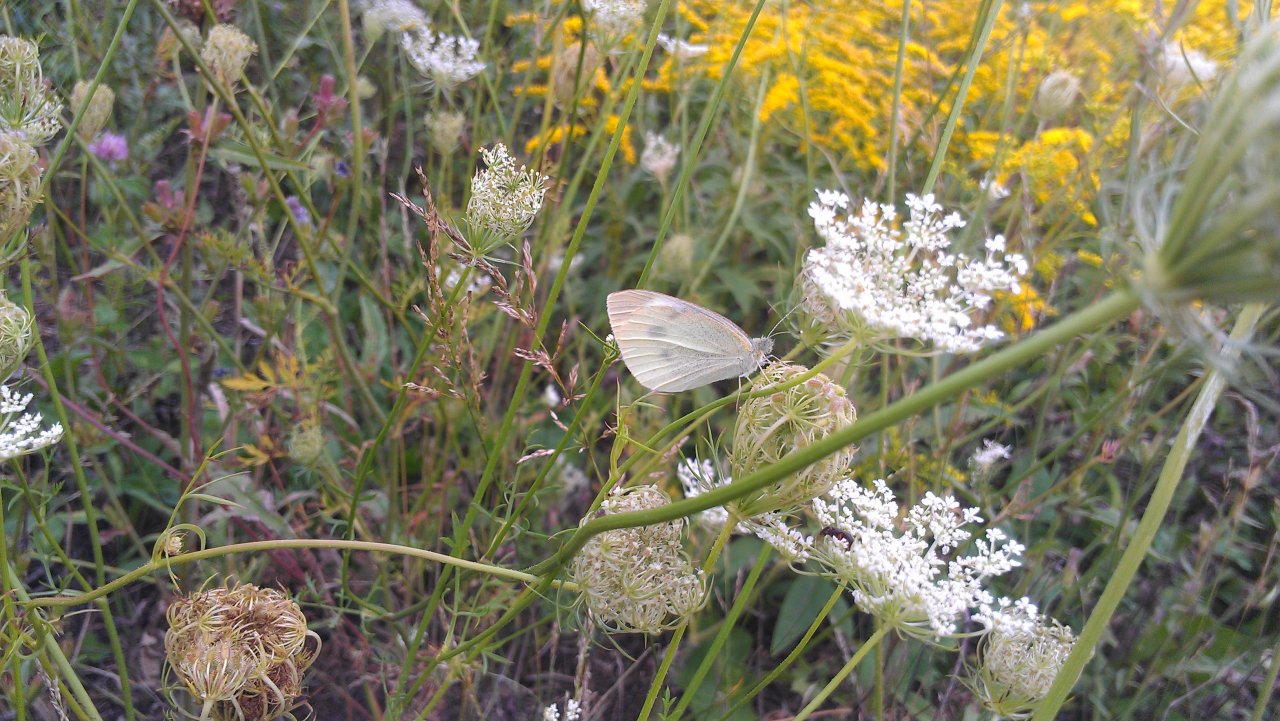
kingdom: Animalia
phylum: Arthropoda
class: Insecta
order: Lepidoptera
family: Pieridae
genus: Pieris
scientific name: Pieris rapae
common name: Cabbage White
